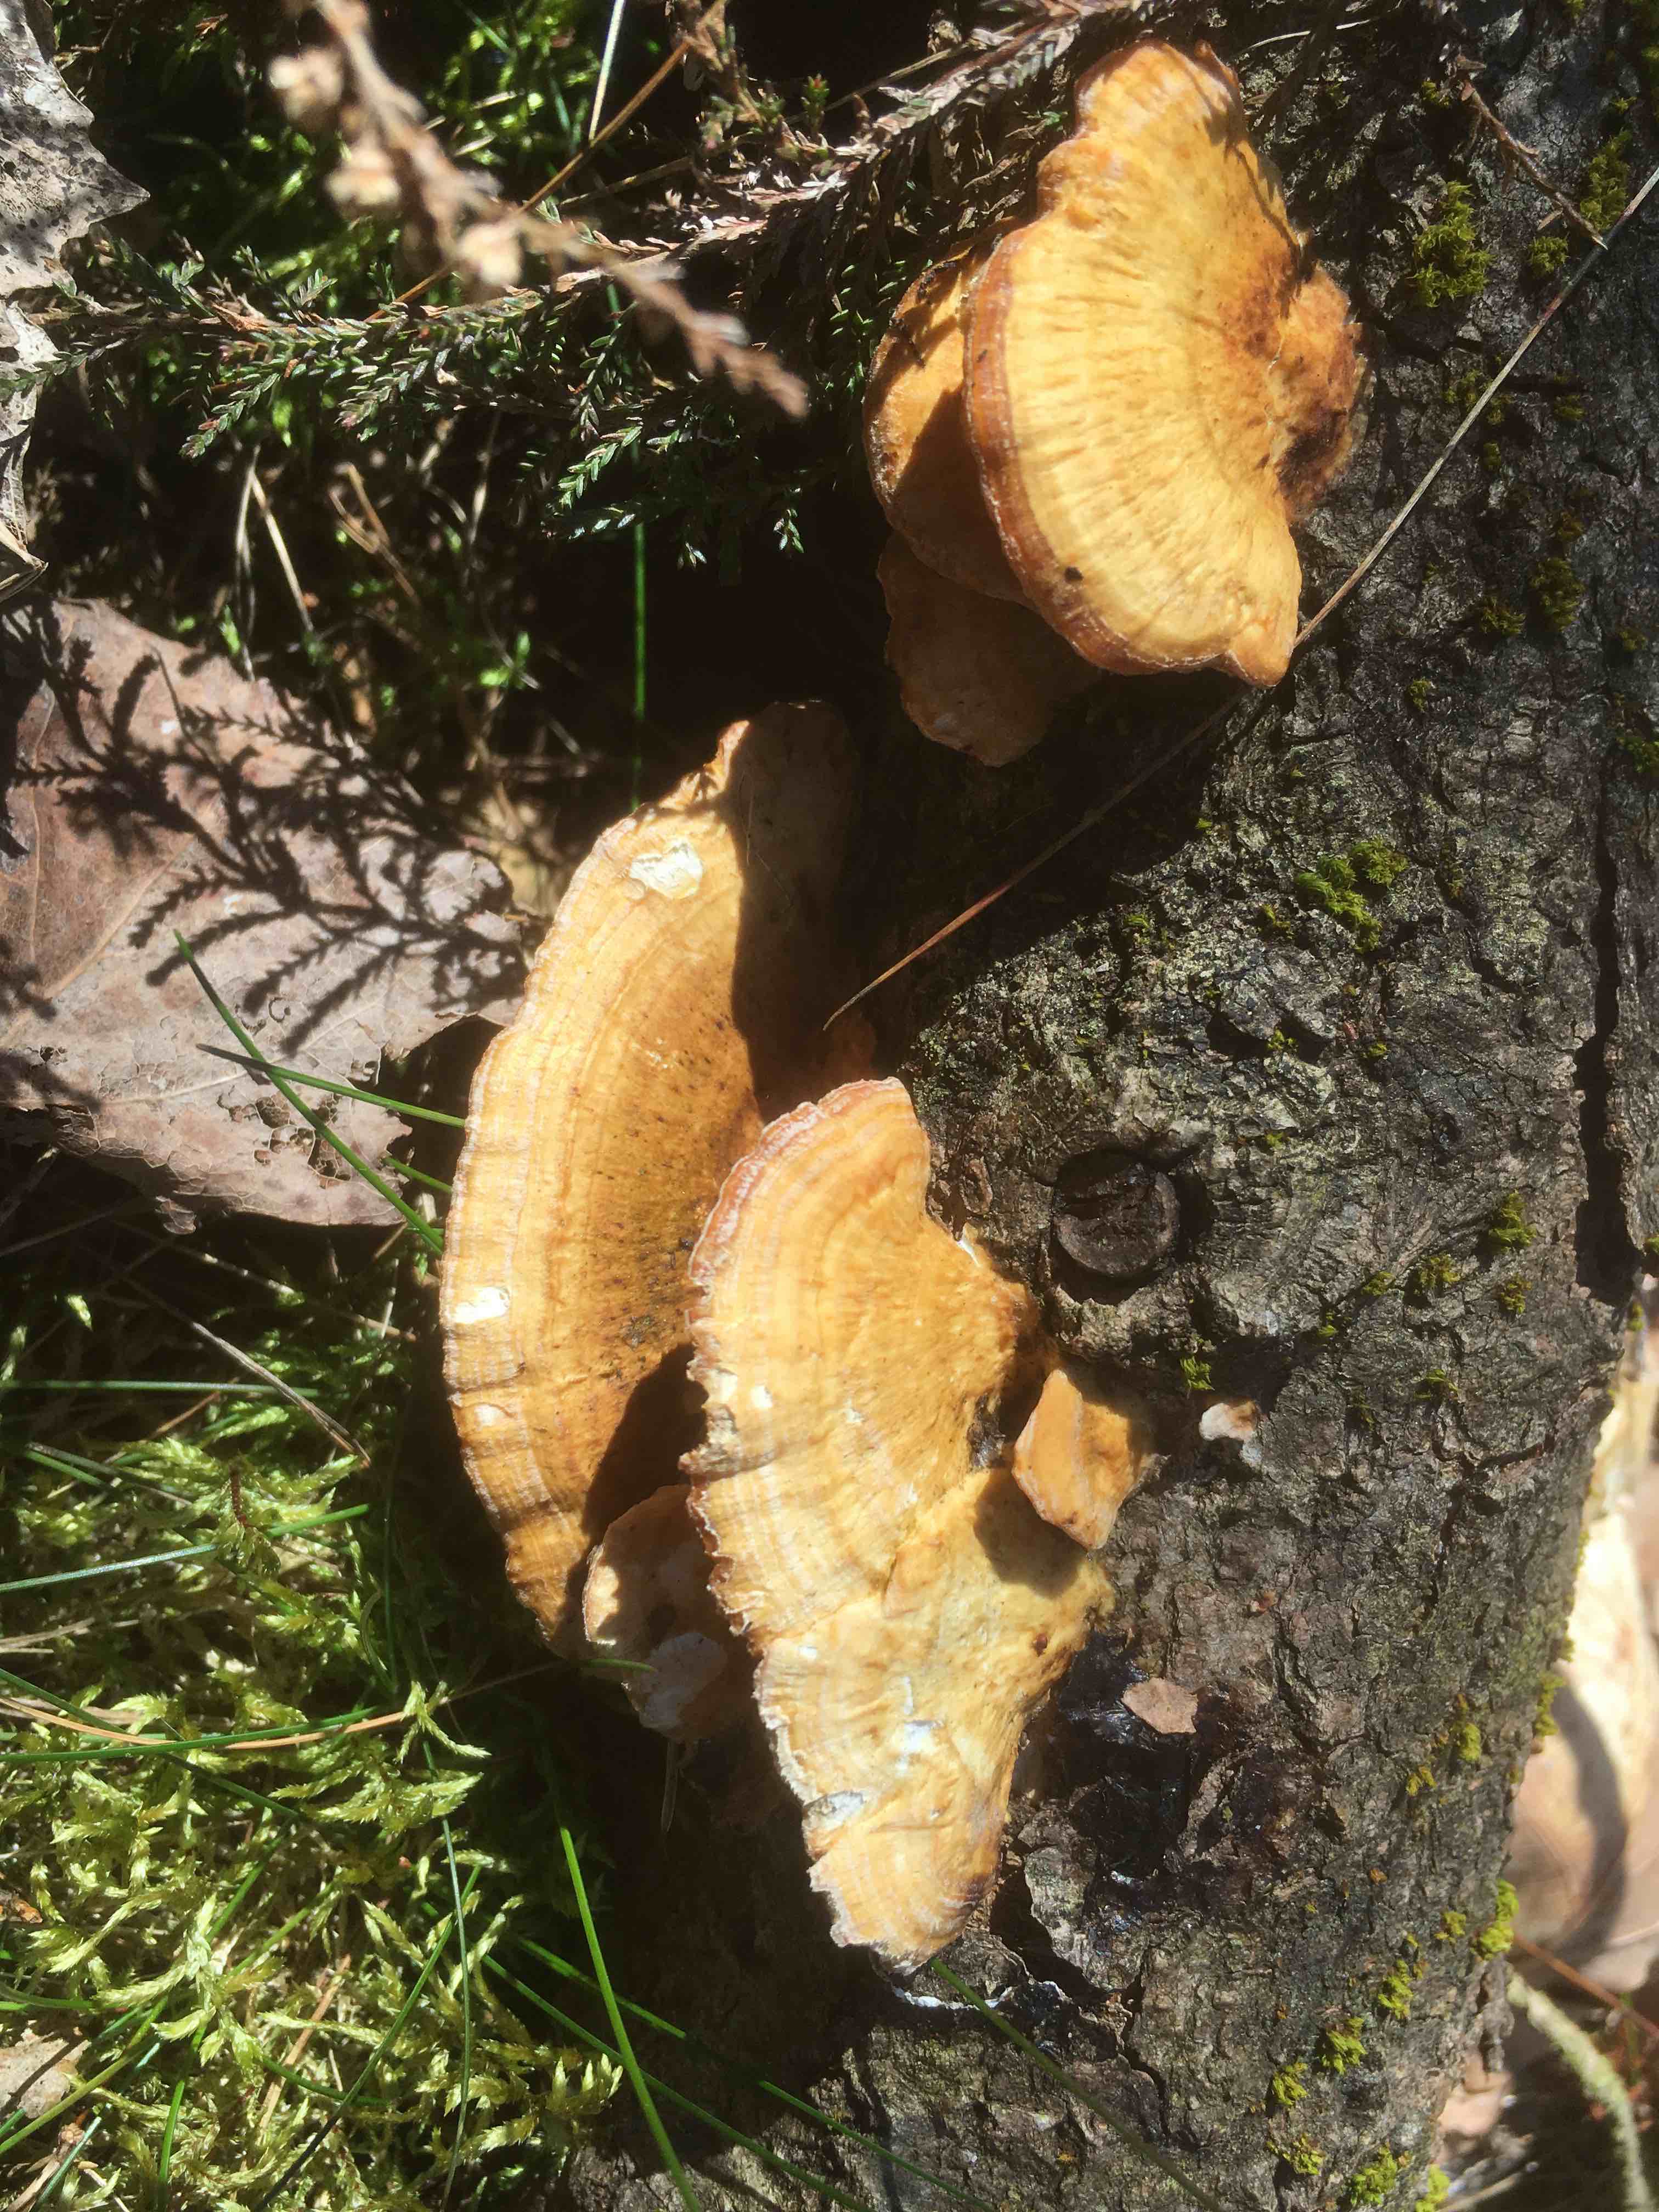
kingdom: Fungi
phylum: Basidiomycota
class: Agaricomycetes
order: Polyporales
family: Polyporaceae
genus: Trametes
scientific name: Trametes ochracea
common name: bæltet læderporesvamp
